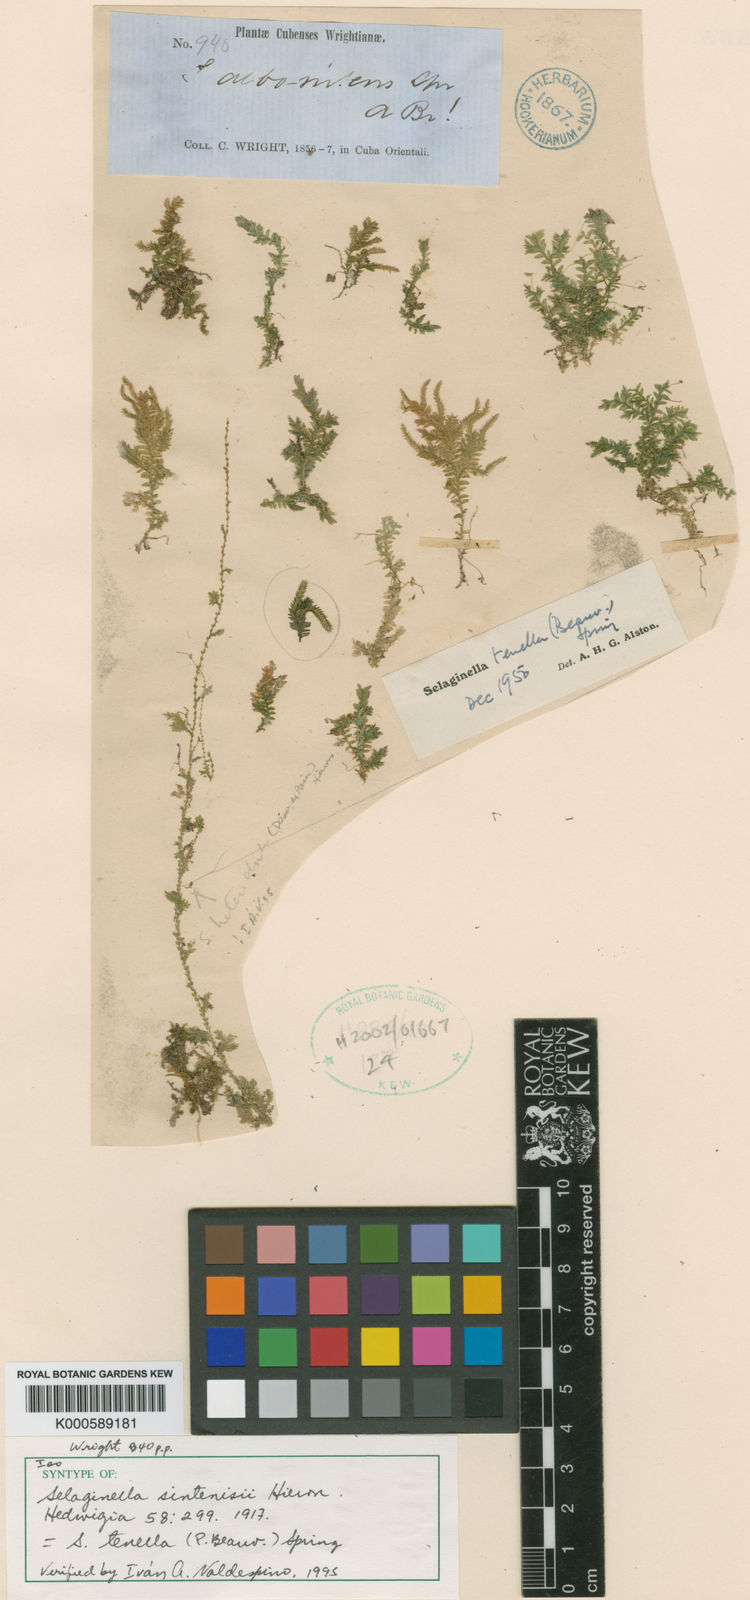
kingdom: Plantae
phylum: Tracheophyta
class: Lycopodiopsida
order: Selaginellales
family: Selaginellaceae
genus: Selaginella
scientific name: Selaginella tenella
